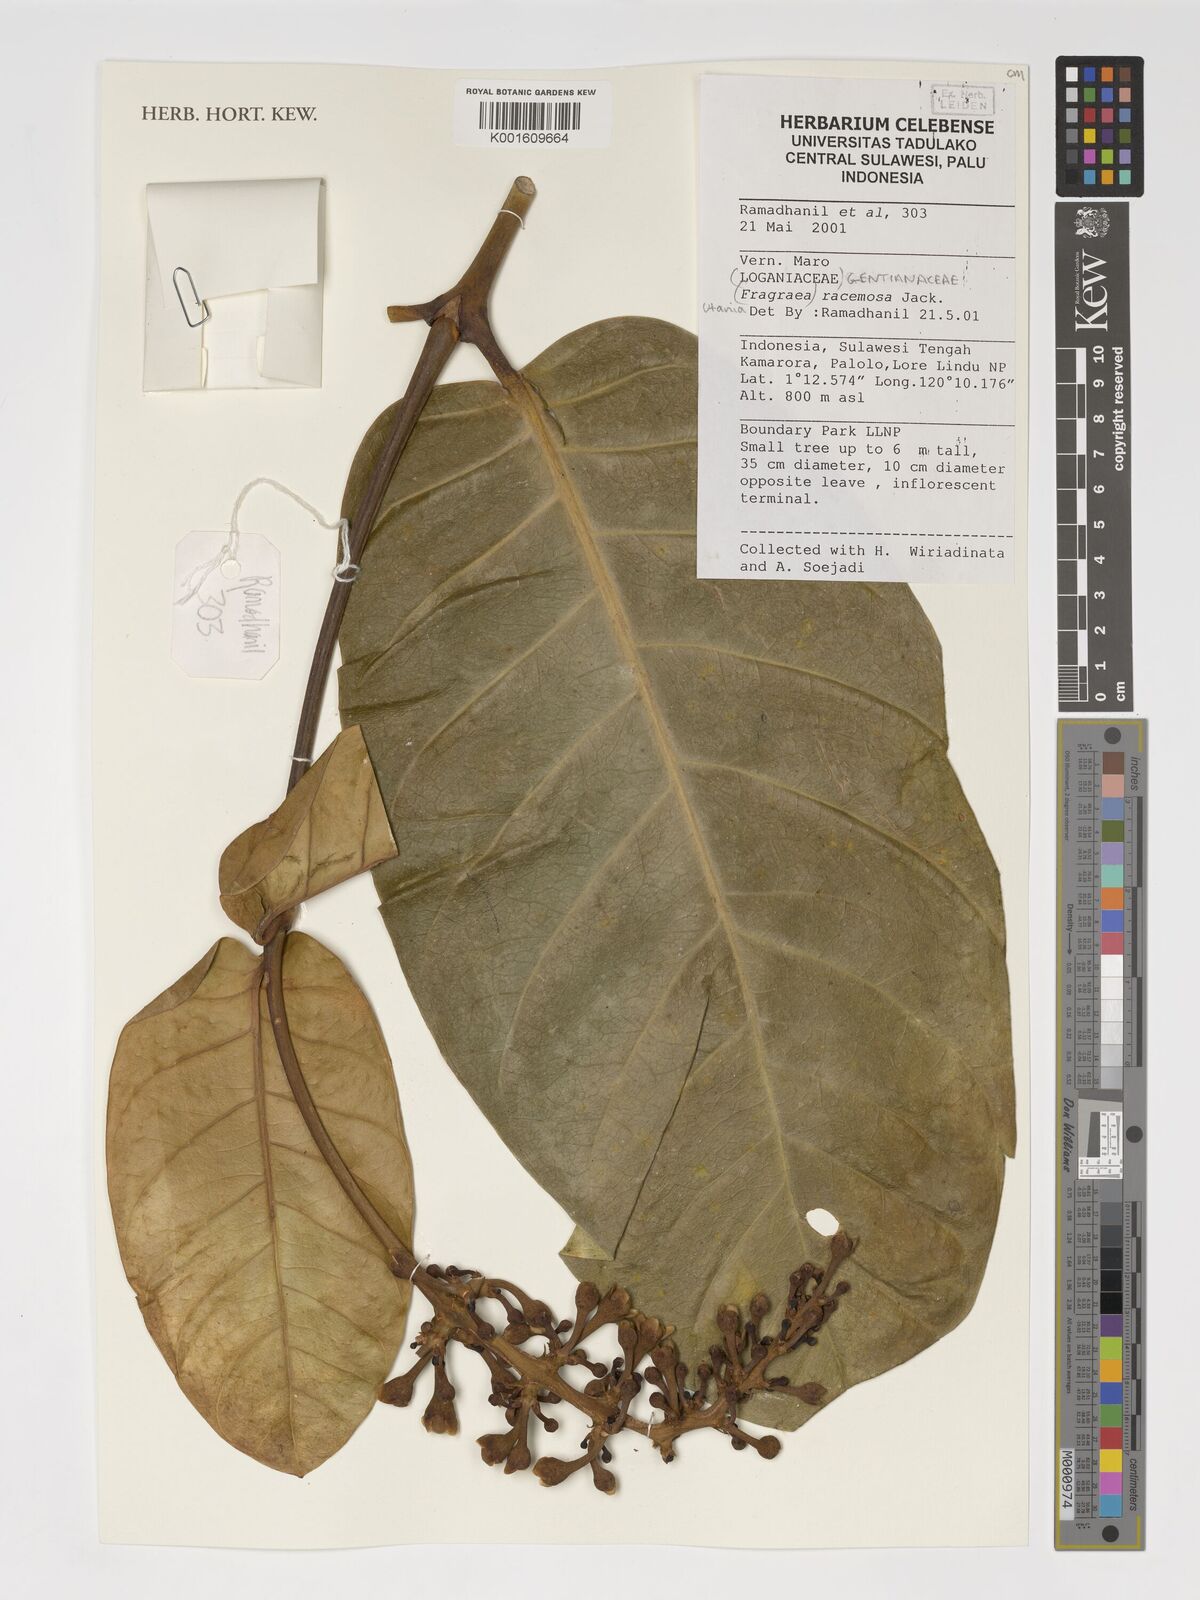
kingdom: Plantae
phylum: Tracheophyta
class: Magnoliopsida
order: Gentianales
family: Gentianaceae
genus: Utania
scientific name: Utania racemosa
